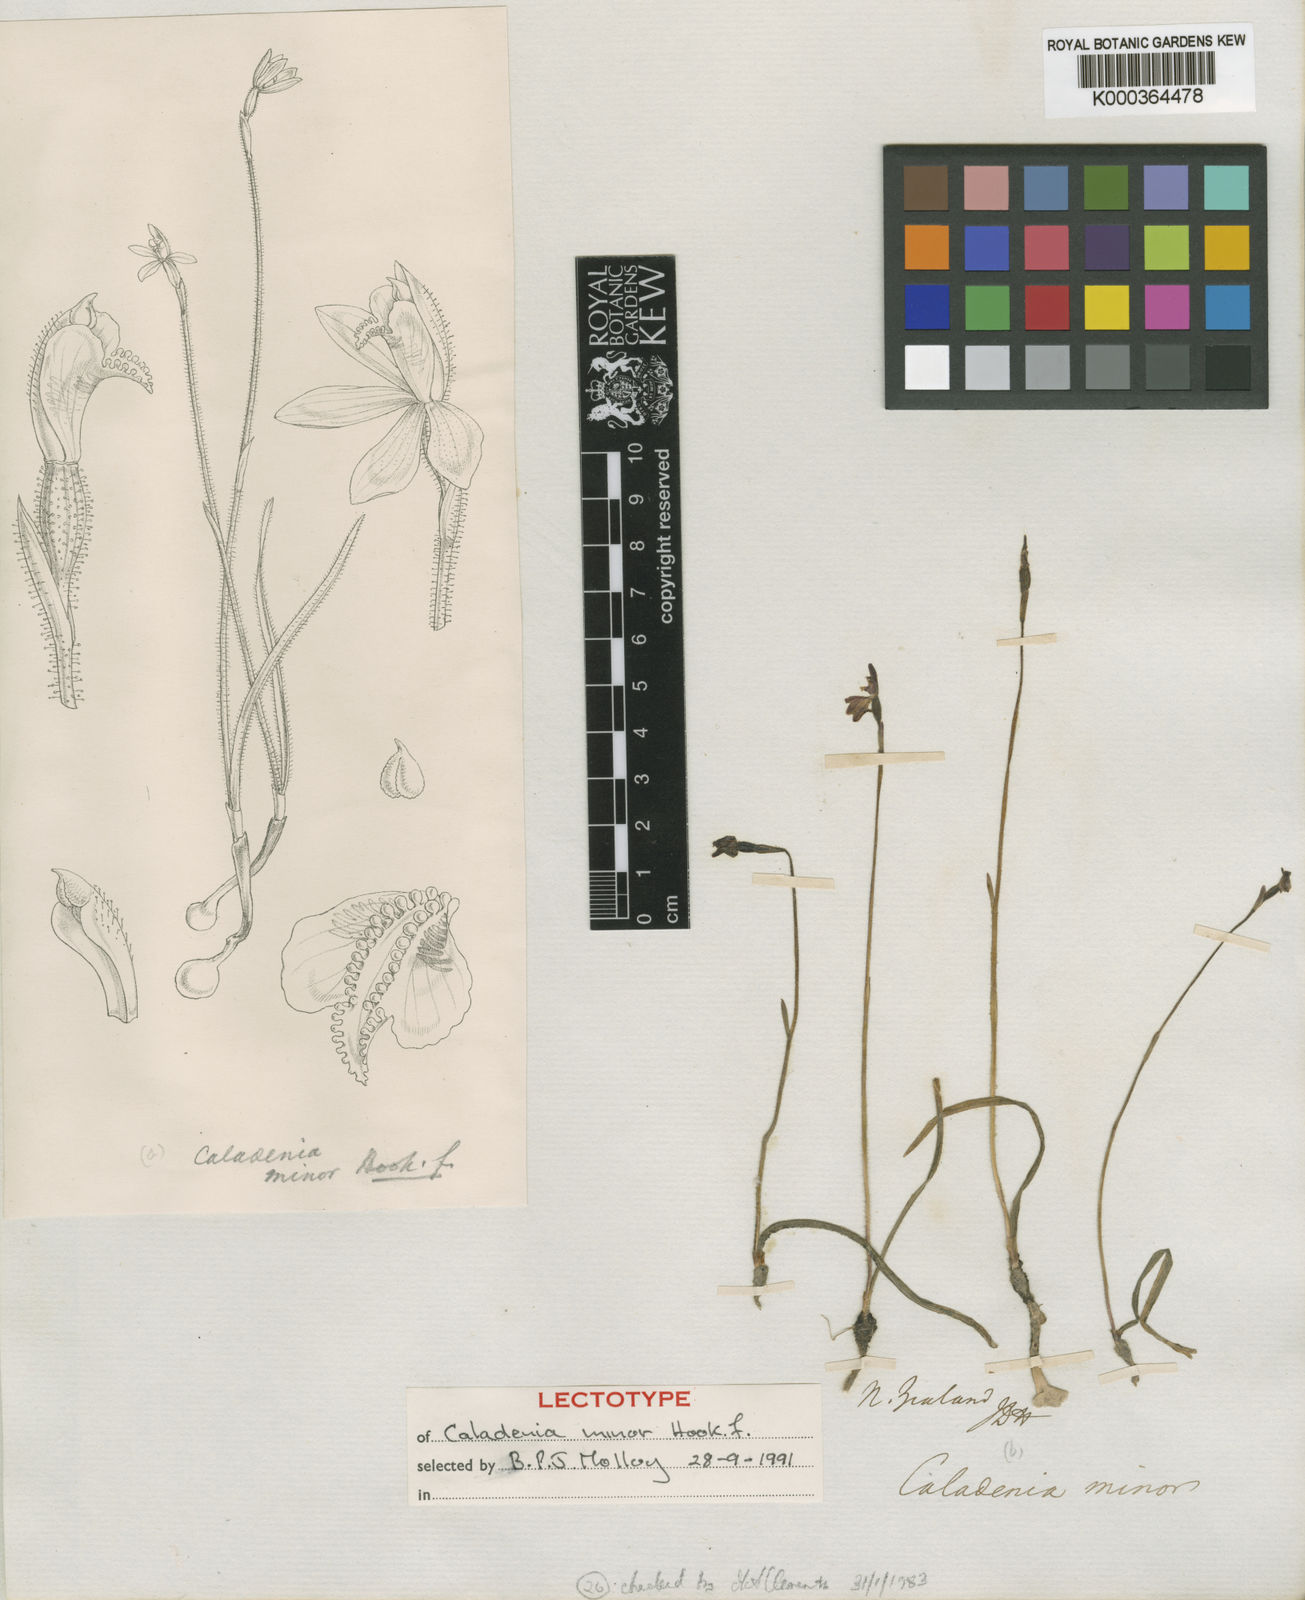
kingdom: Plantae
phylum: Tracheophyta
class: Liliopsida
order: Asparagales
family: Orchidaceae
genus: Caladenia
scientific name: Caladenia minor
